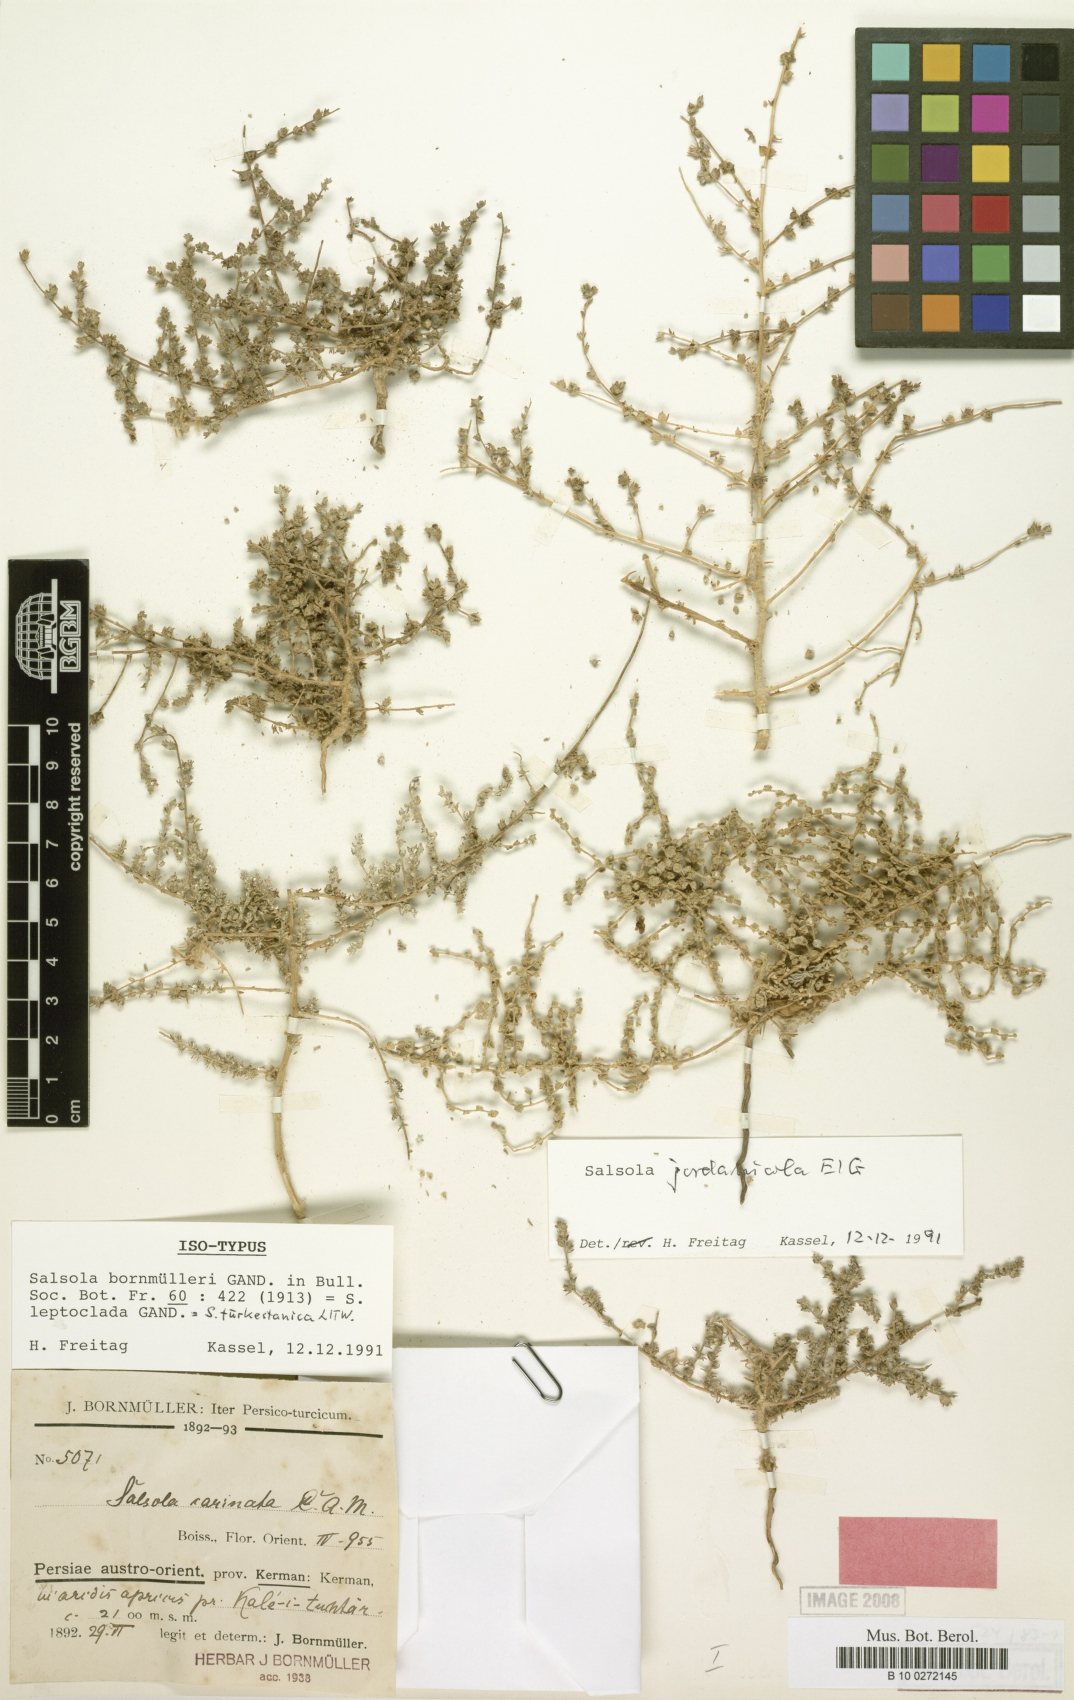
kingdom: Plantae
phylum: Tracheophyta
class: Magnoliopsida
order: Caryophyllales
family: Amaranthaceae
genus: Caroxylon
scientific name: Caroxylon jordanicola
